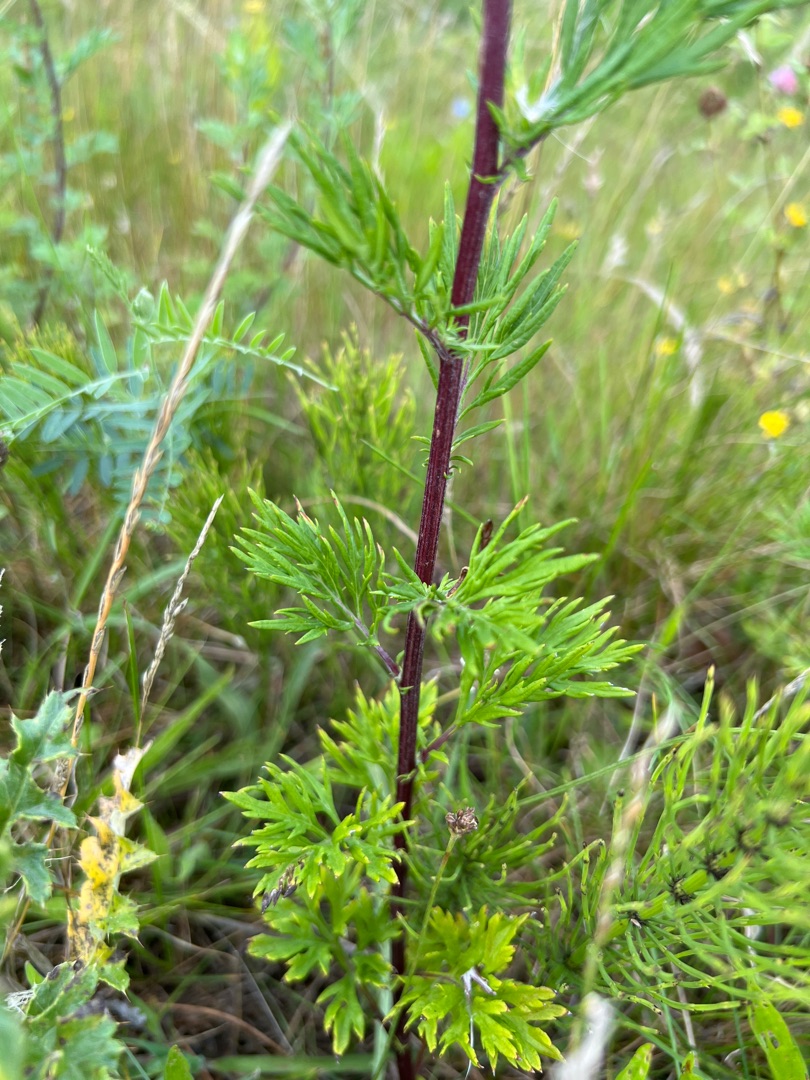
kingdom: Plantae
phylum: Tracheophyta
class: Magnoliopsida
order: Asterales
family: Asteraceae
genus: Artemisia
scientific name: Artemisia vulgaris
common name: Grå-bynke
